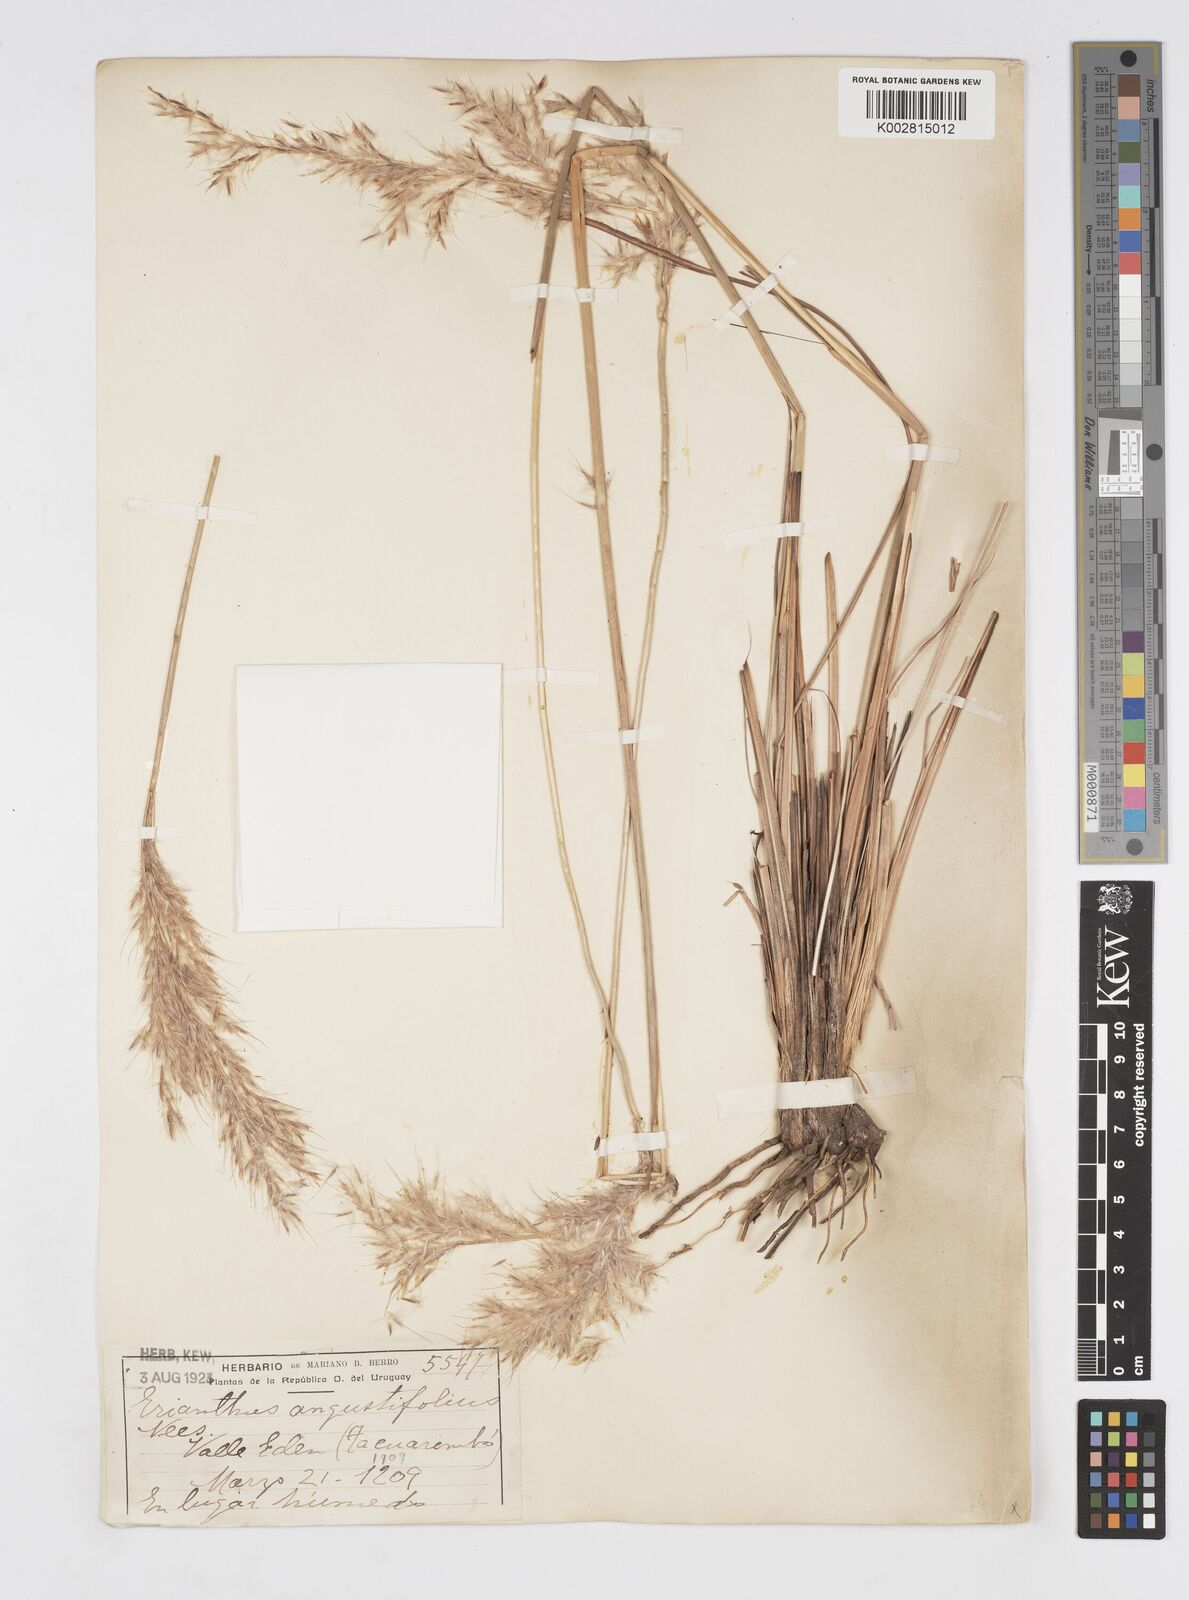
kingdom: Plantae
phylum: Tracheophyta
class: Liliopsida
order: Poales
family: Poaceae
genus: Saccharum
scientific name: Saccharum angustifolium
